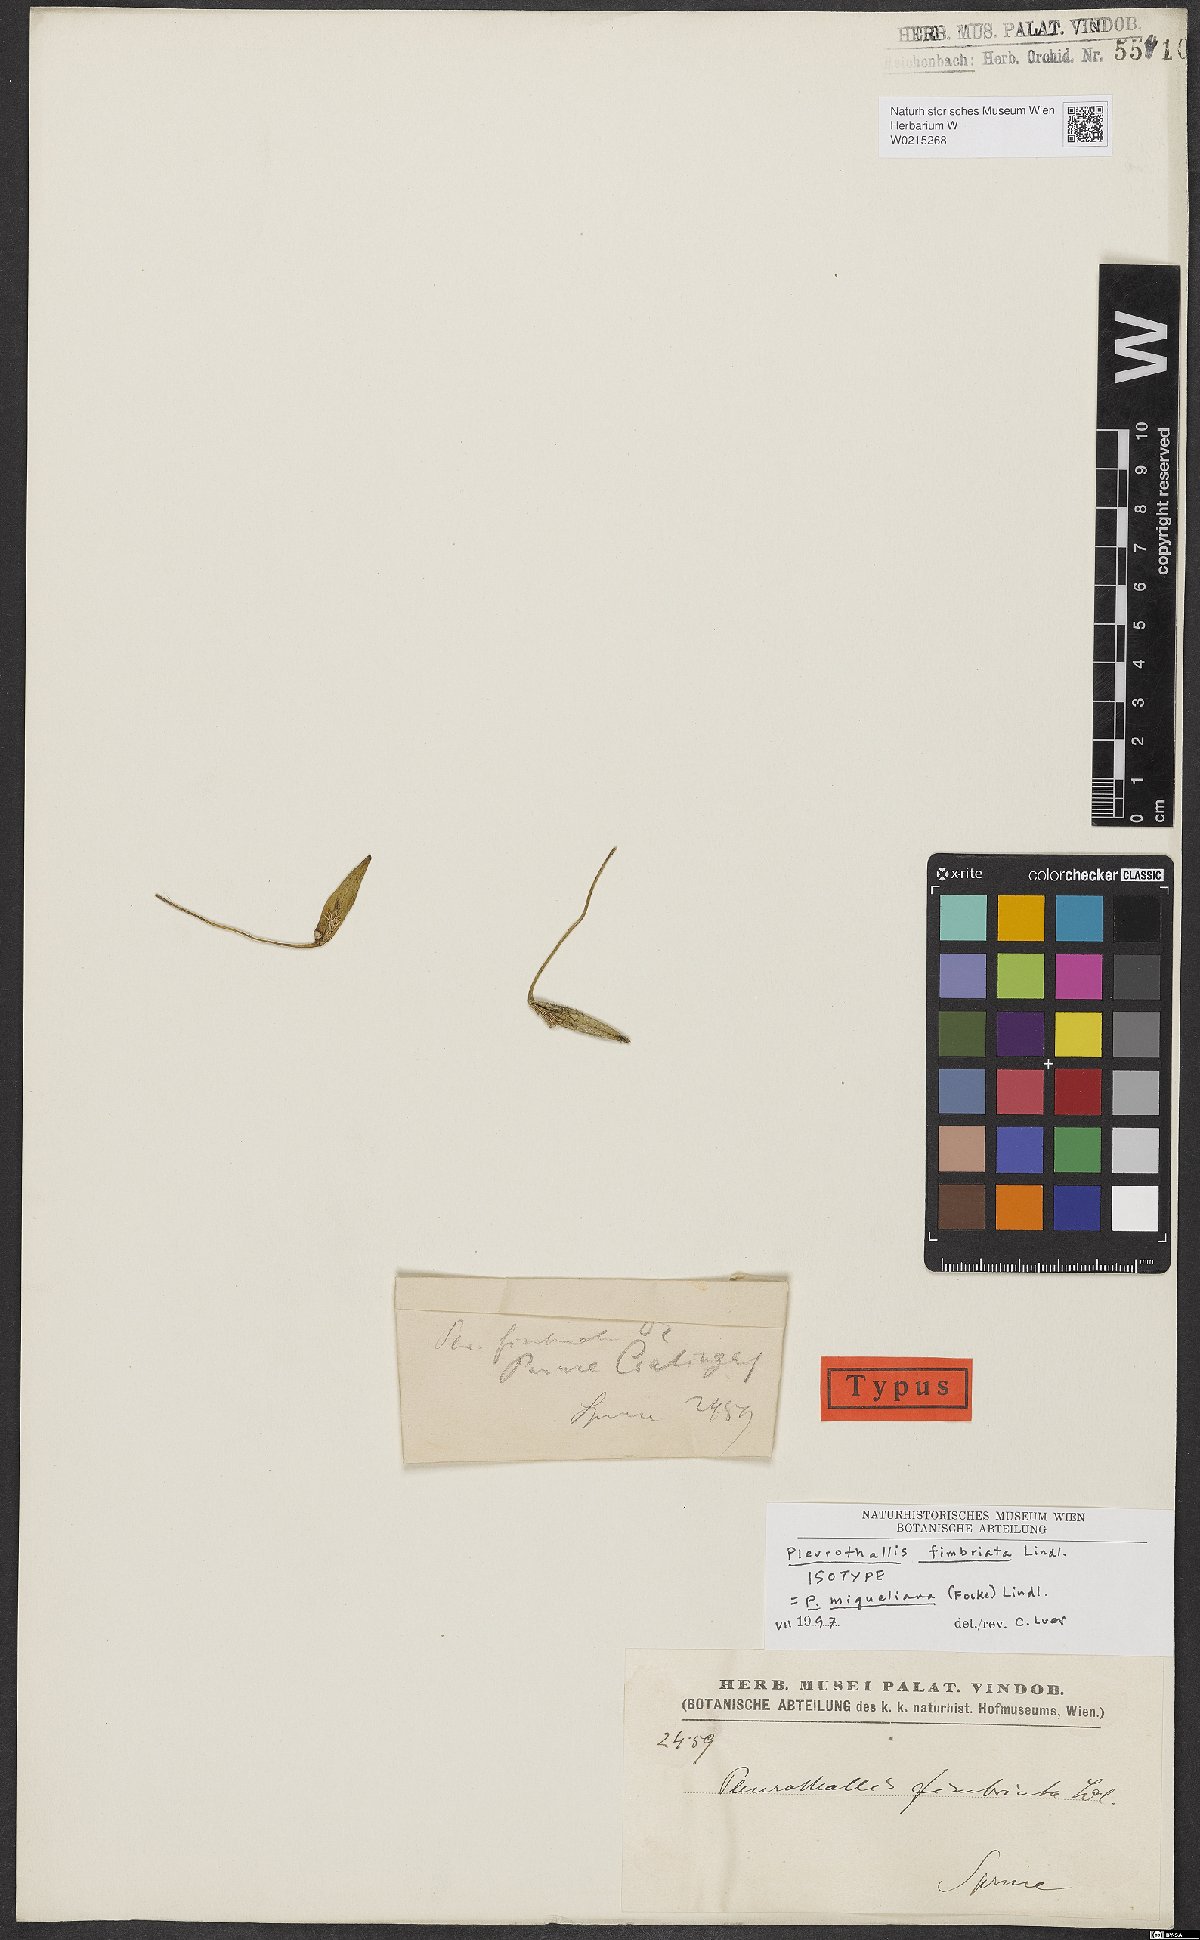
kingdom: Plantae
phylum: Tracheophyta
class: Liliopsida
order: Asparagales
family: Orchidaceae
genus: Pleurothallis
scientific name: Pleurothallis
